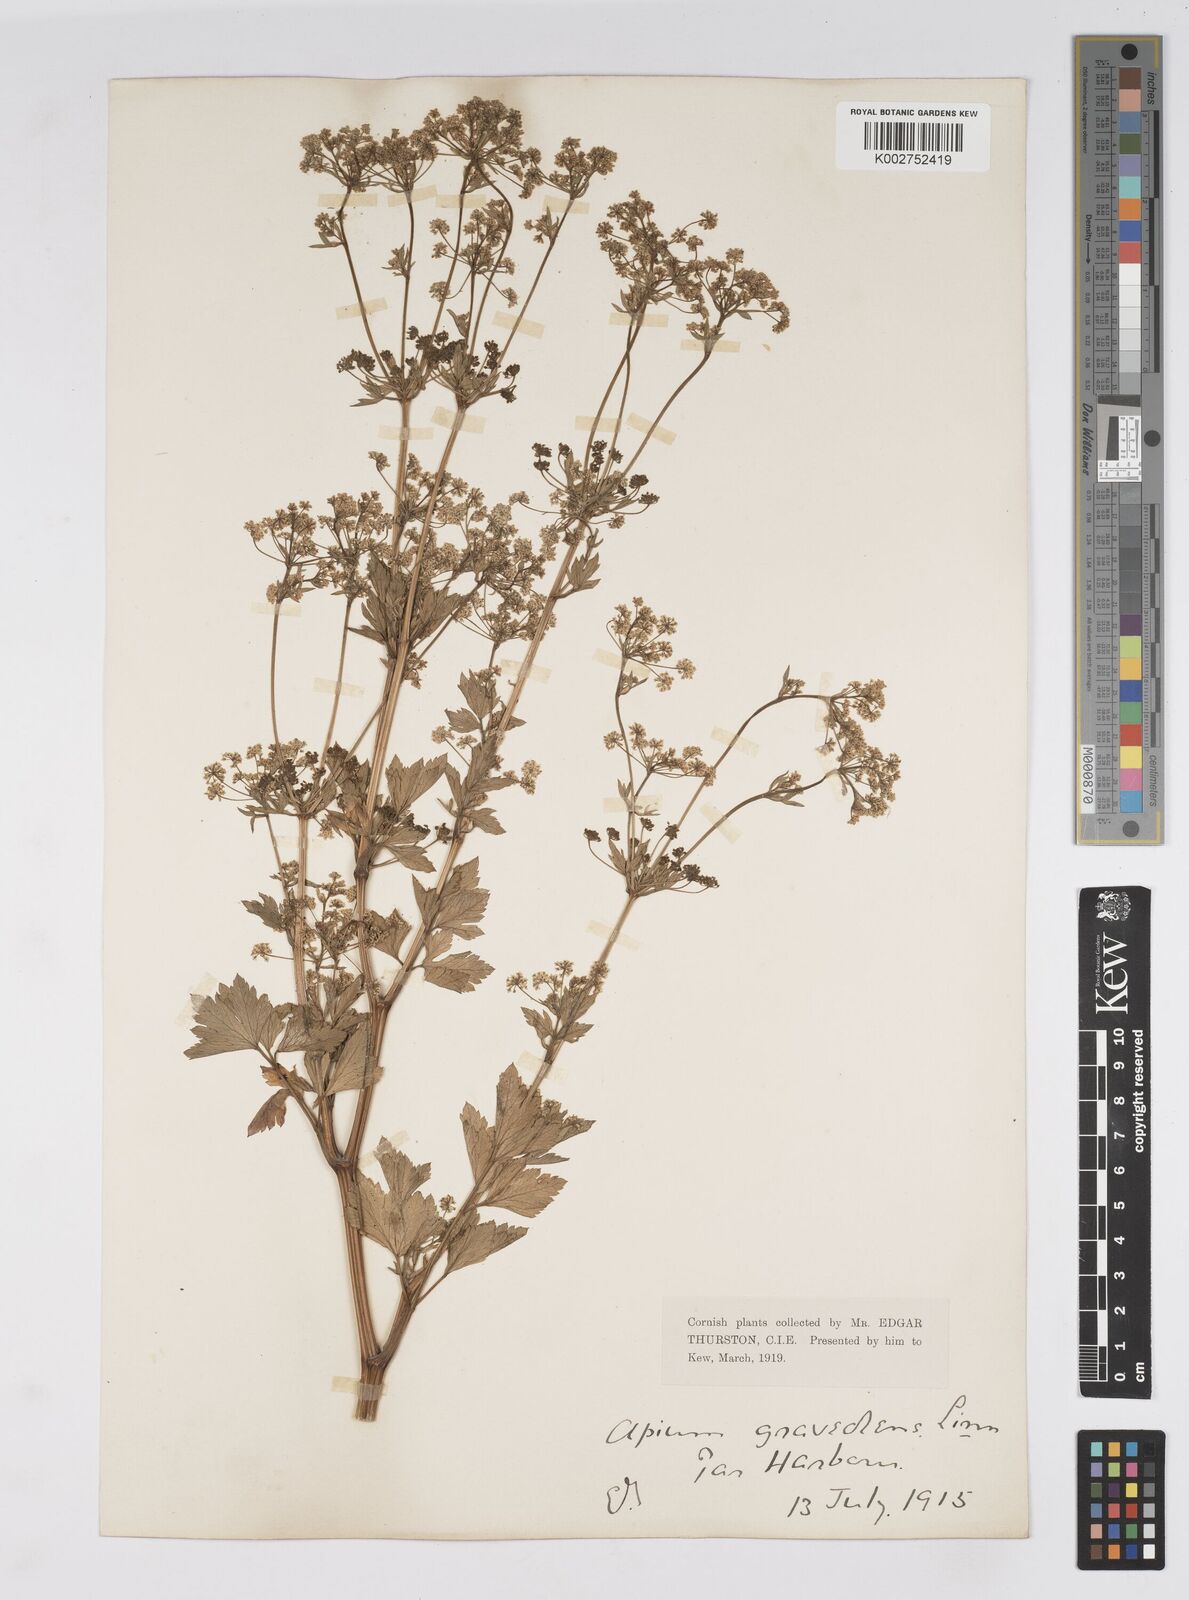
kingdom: Plantae
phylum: Tracheophyta
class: Magnoliopsida
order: Apiales
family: Apiaceae
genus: Apium
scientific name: Apium graveolens
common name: Wild celery
